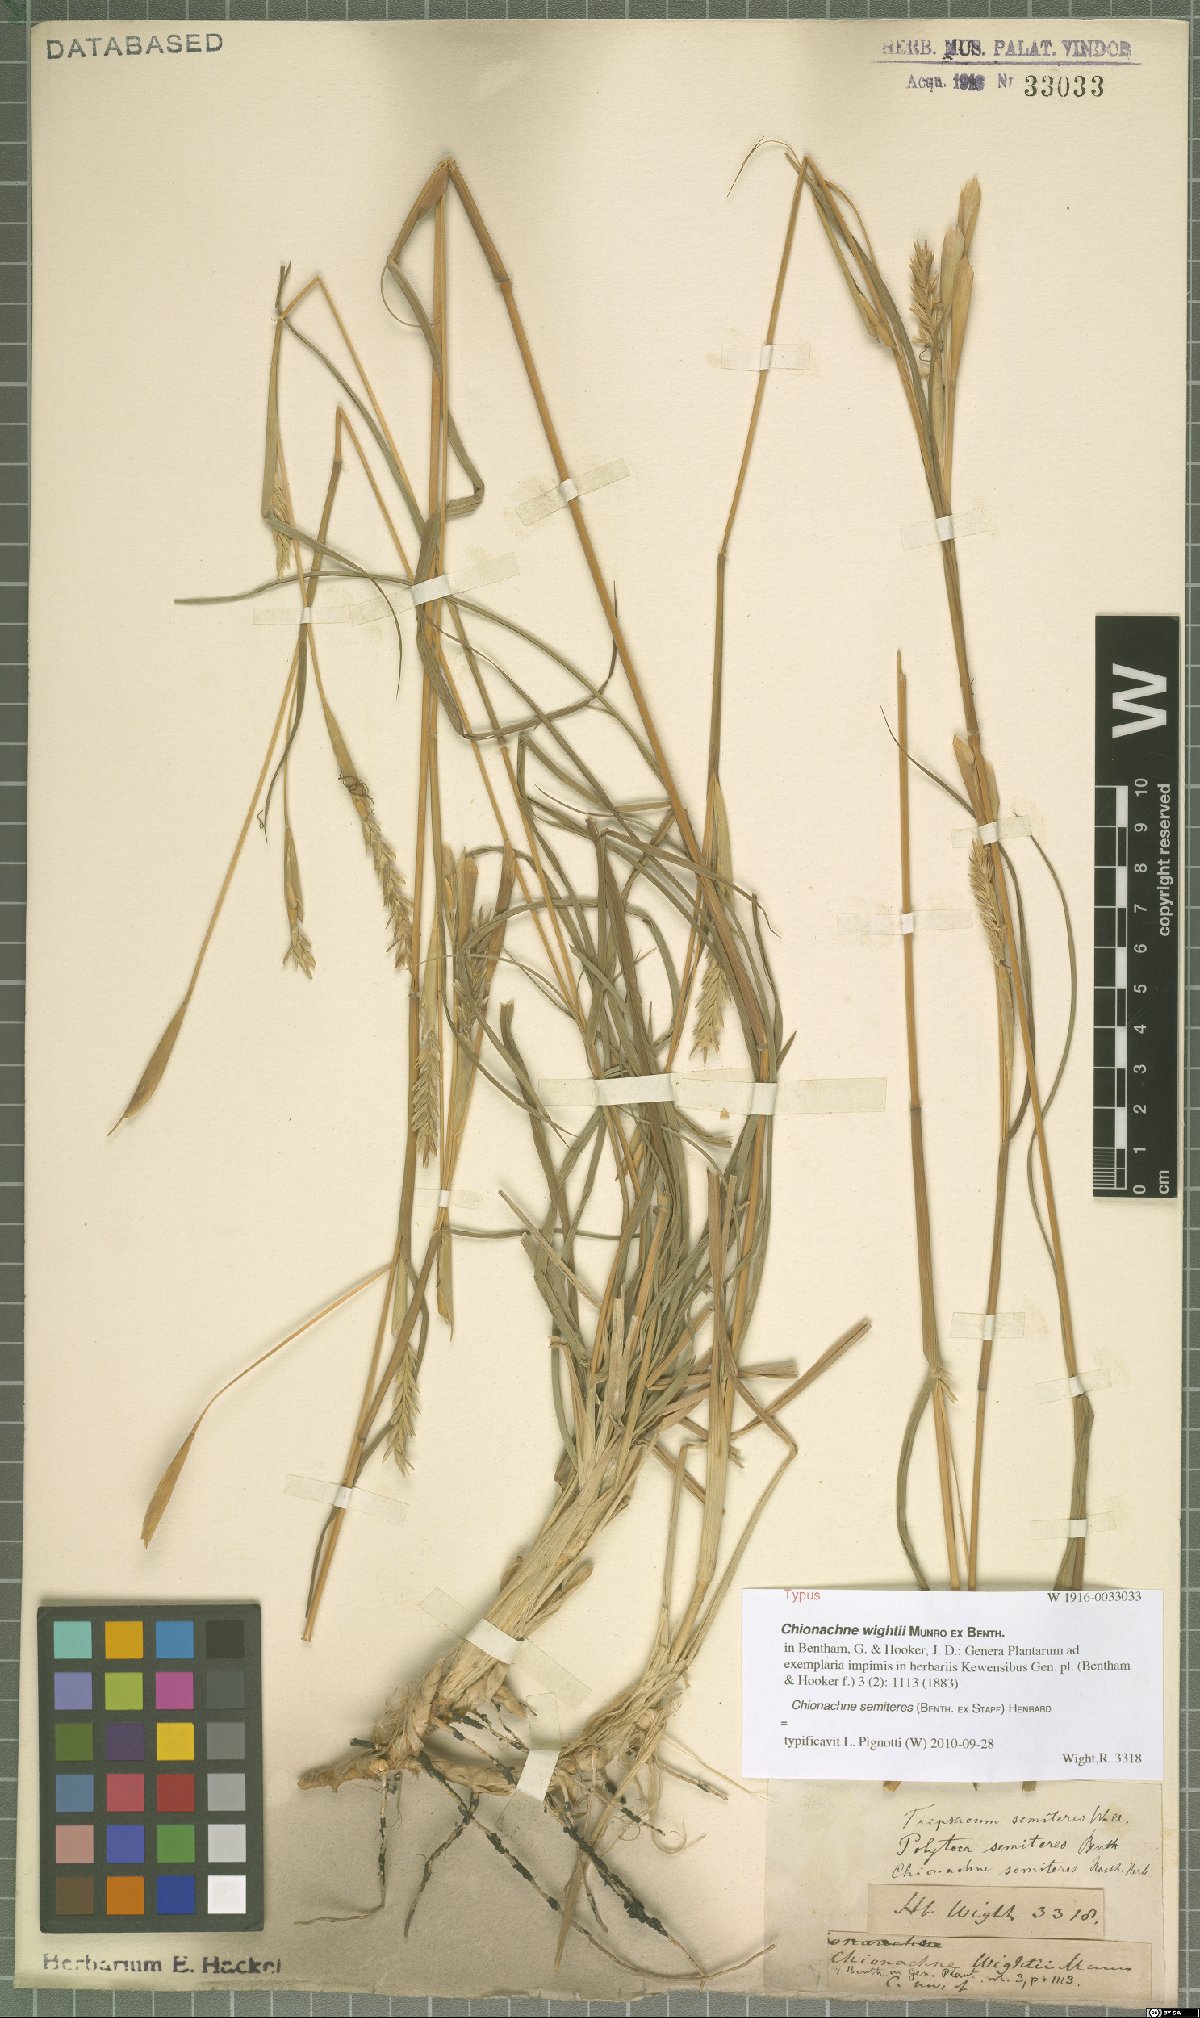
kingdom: Plantae
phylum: Tracheophyta
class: Liliopsida
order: Poales
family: Poaceae
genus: Polytoca
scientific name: Polytoca semiteres
